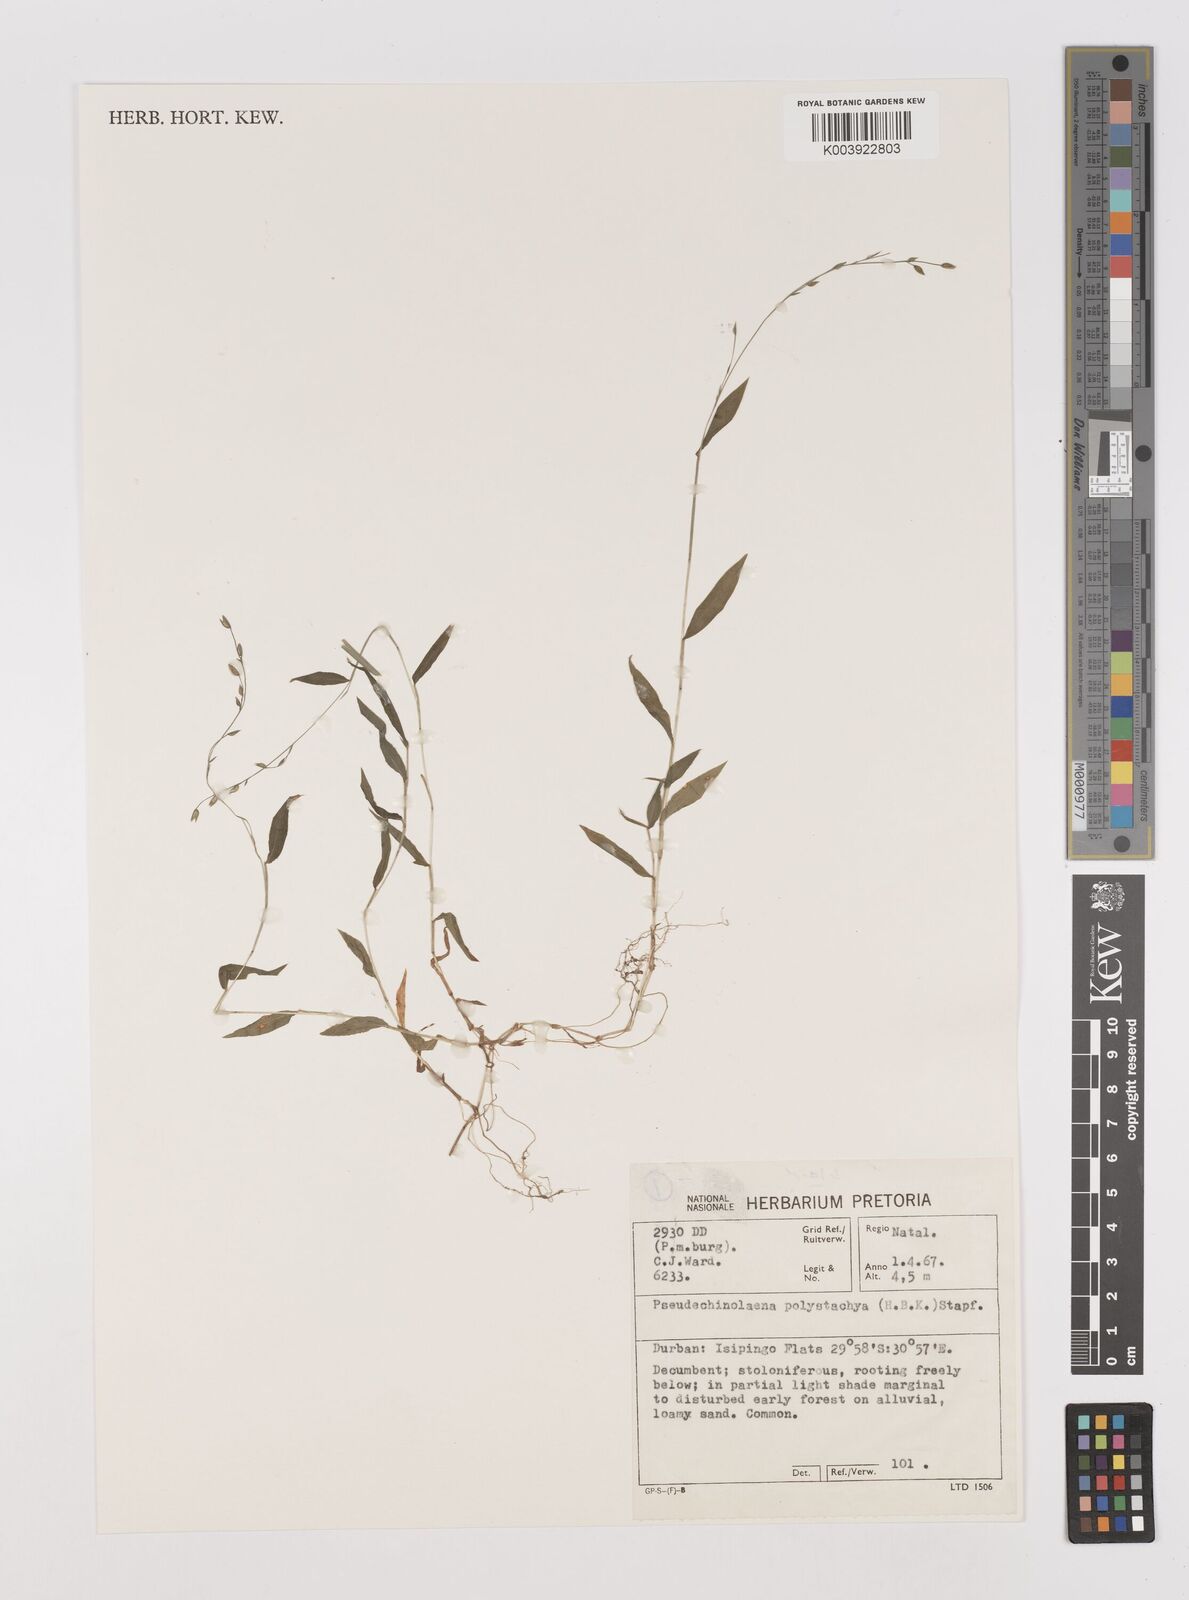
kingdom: Plantae
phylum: Tracheophyta
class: Liliopsida
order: Poales
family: Poaceae
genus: Pseudechinolaena
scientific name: Pseudechinolaena polystachya
